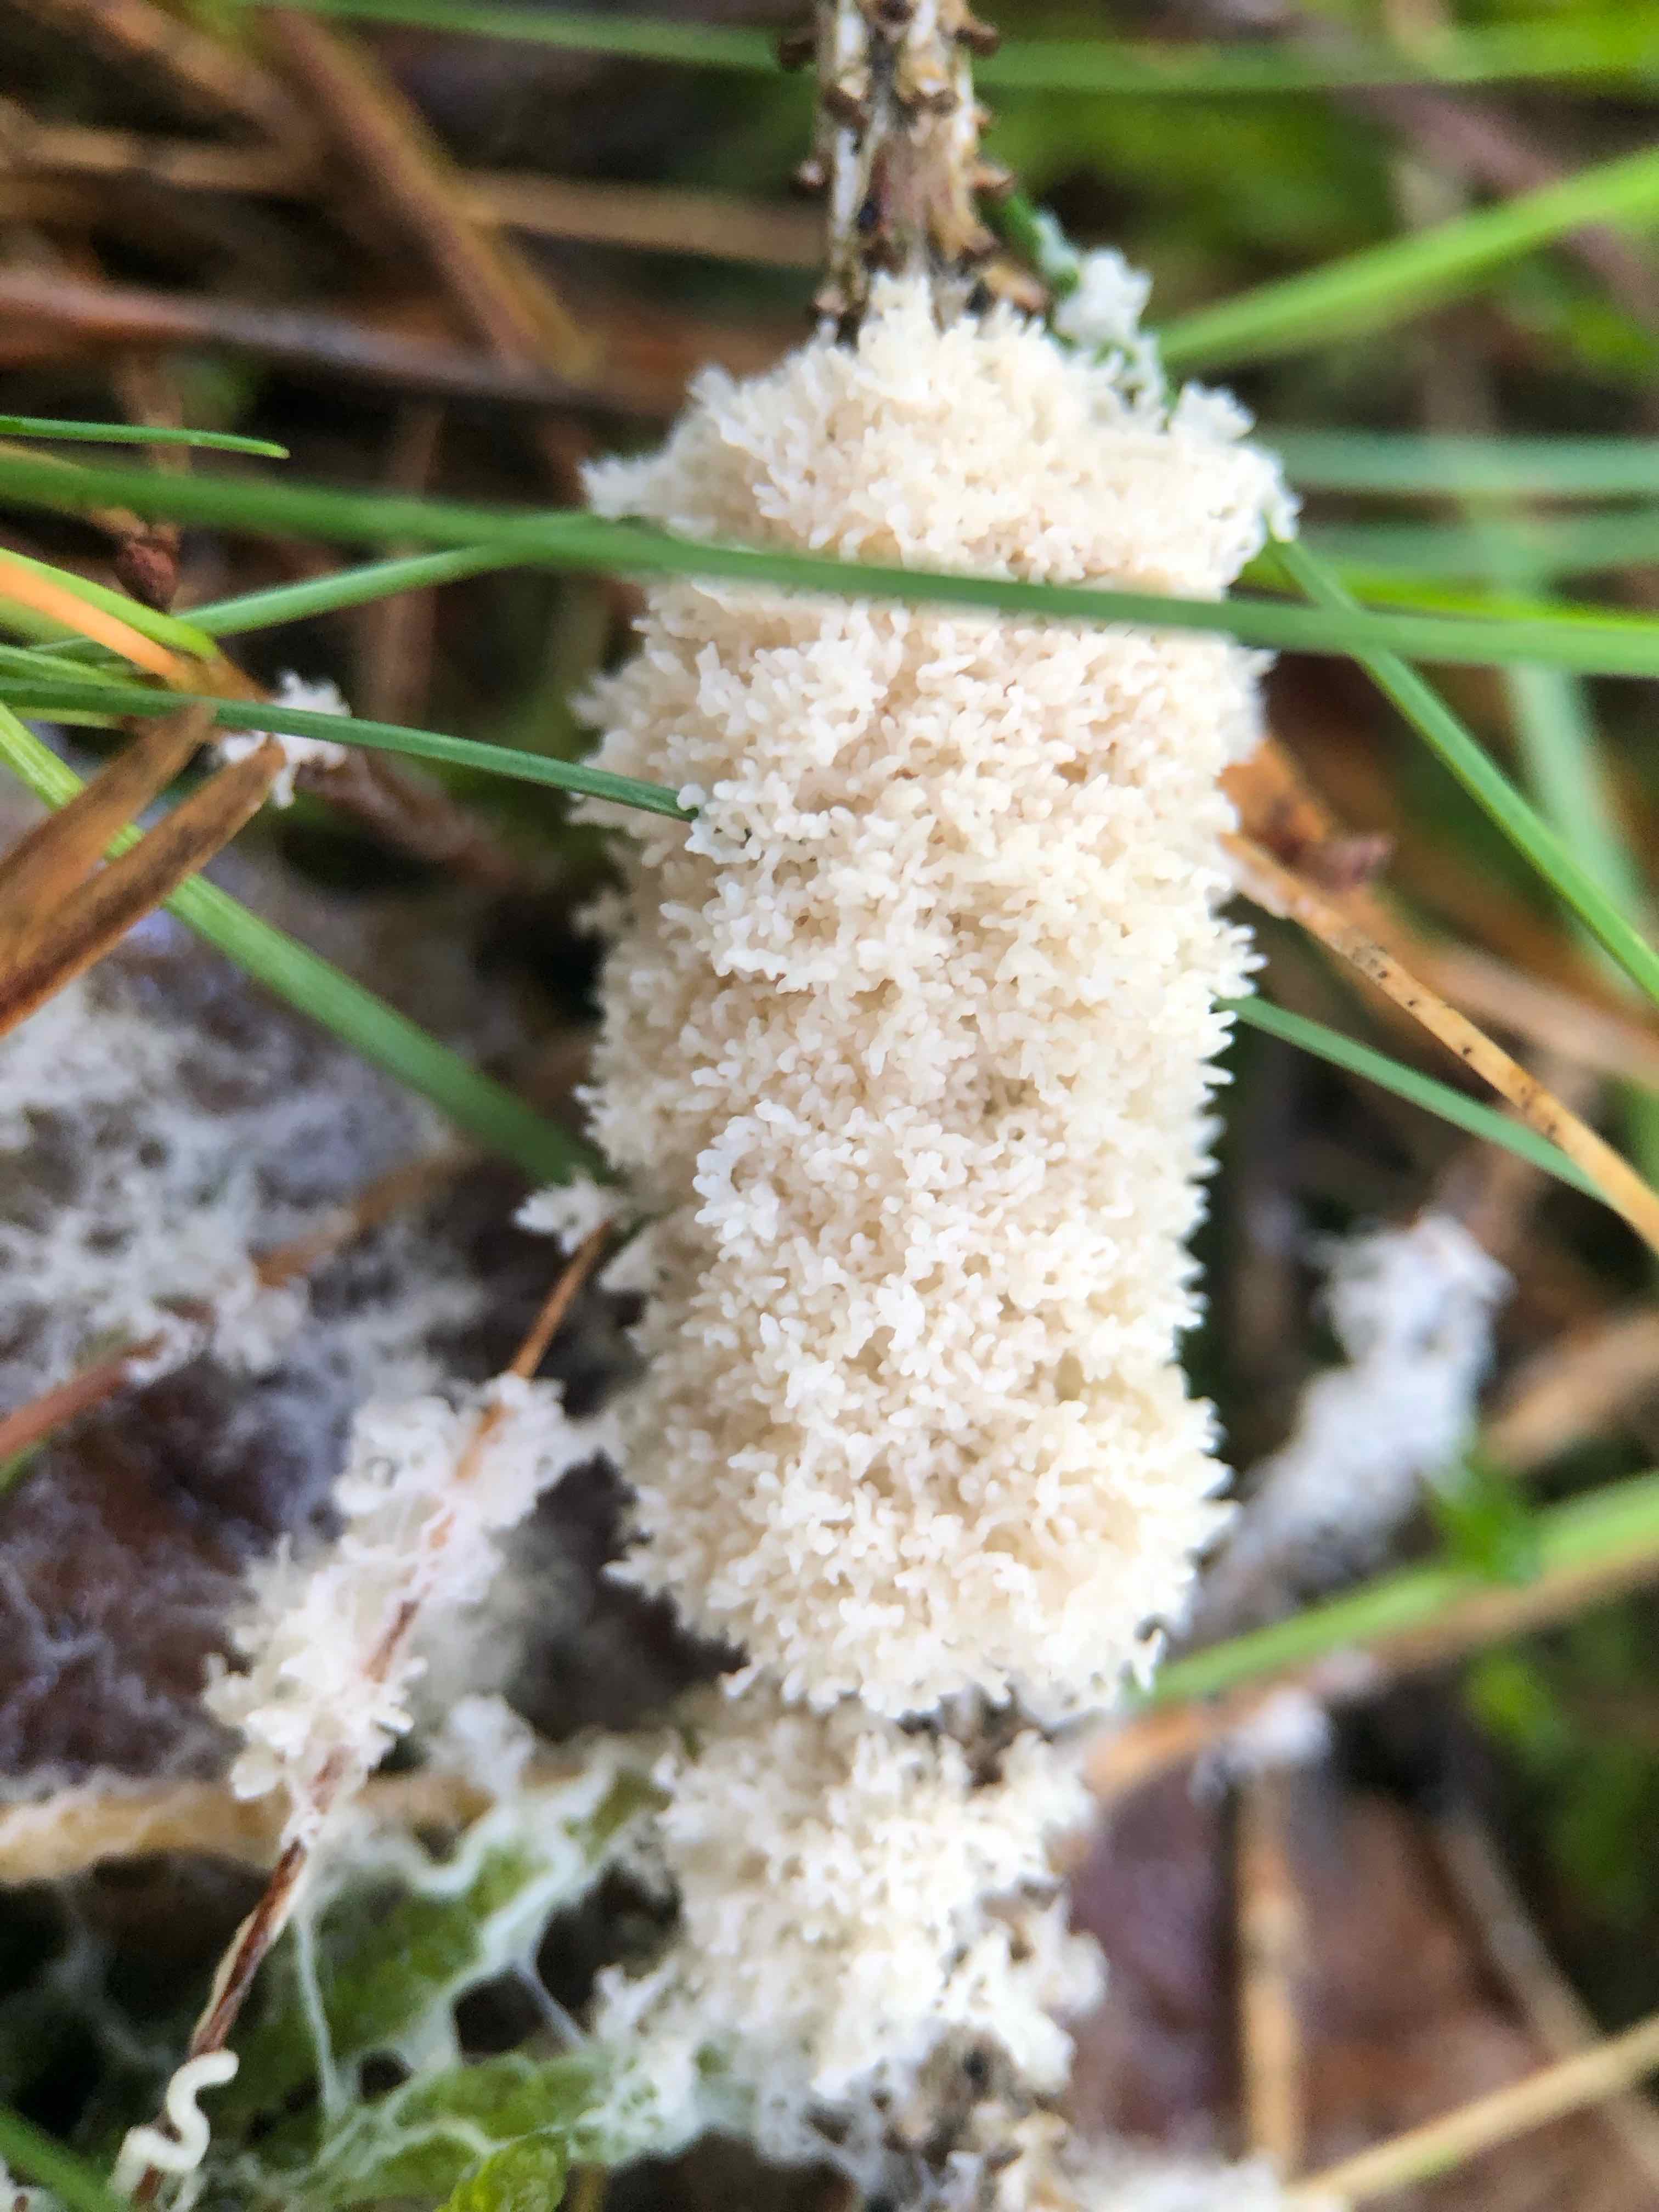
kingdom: Protozoa
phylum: Mycetozoa
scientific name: Mycetozoa
